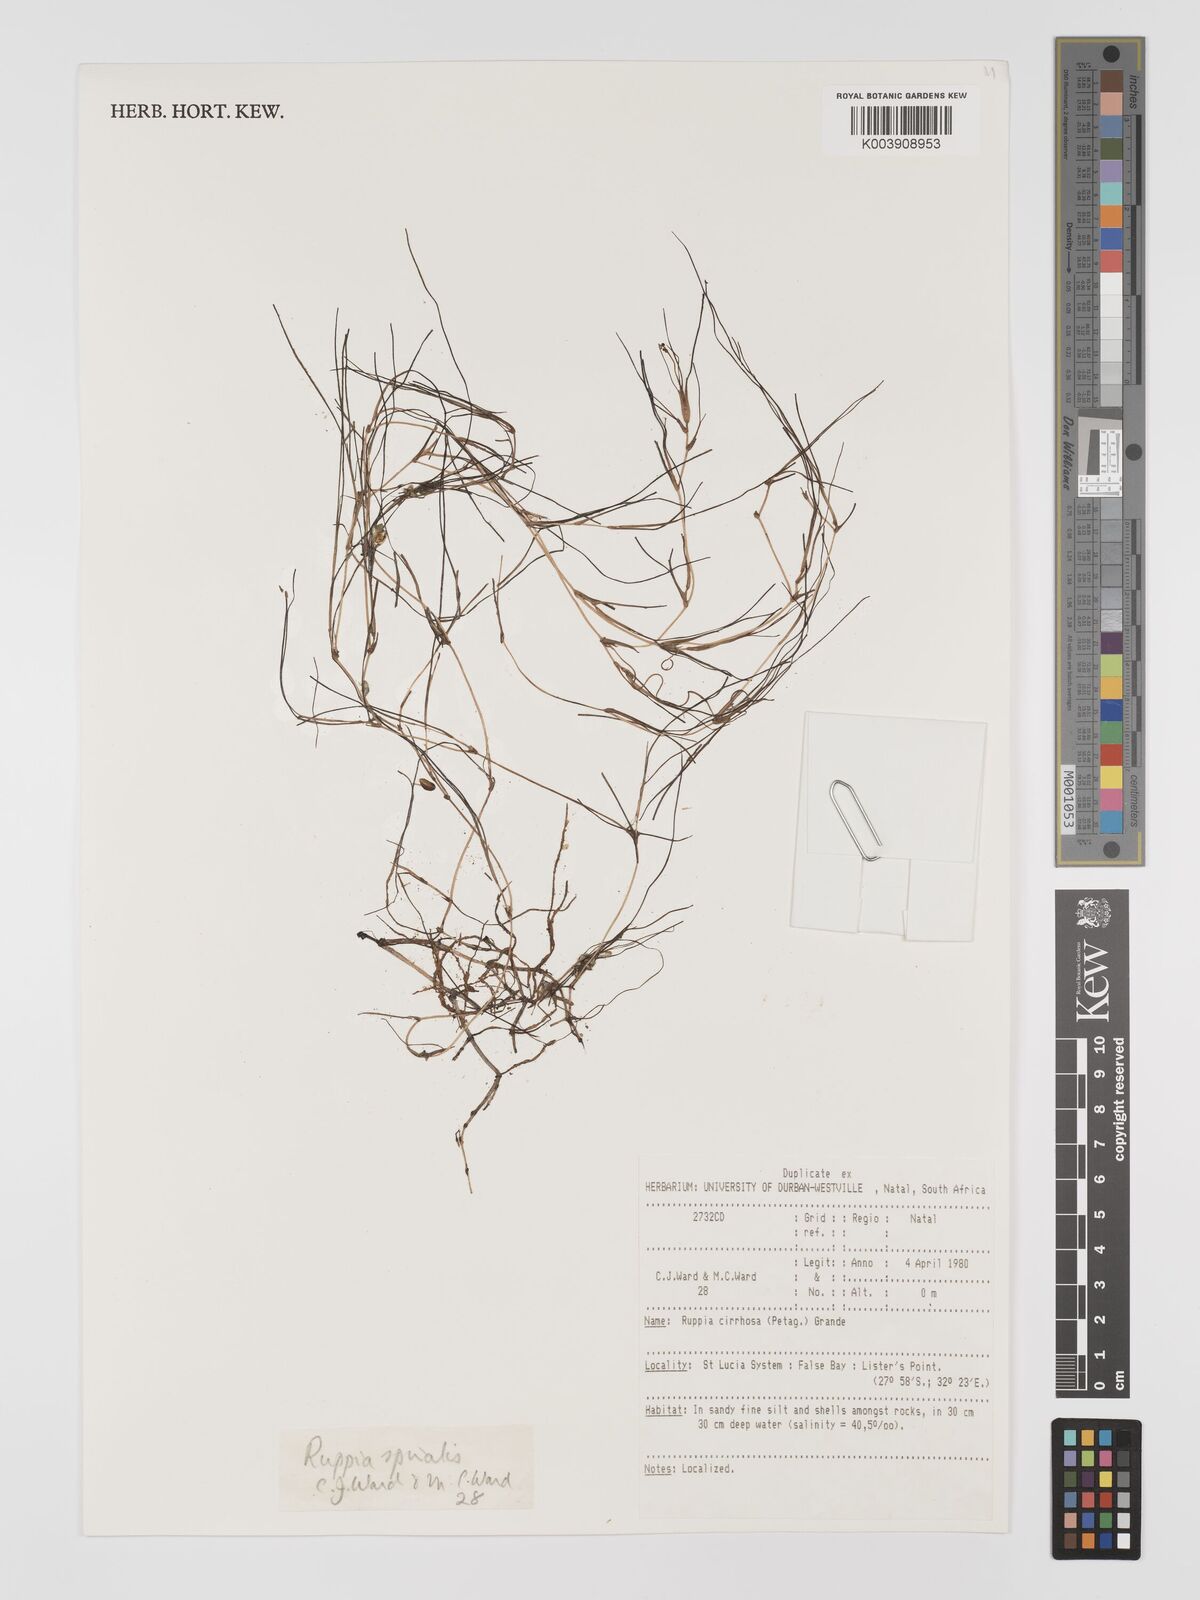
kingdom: Plantae
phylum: Tracheophyta
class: Liliopsida
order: Alismatales
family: Ruppiaceae
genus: Ruppia
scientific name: Ruppia cirrhosa
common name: Spiral tasselweed
